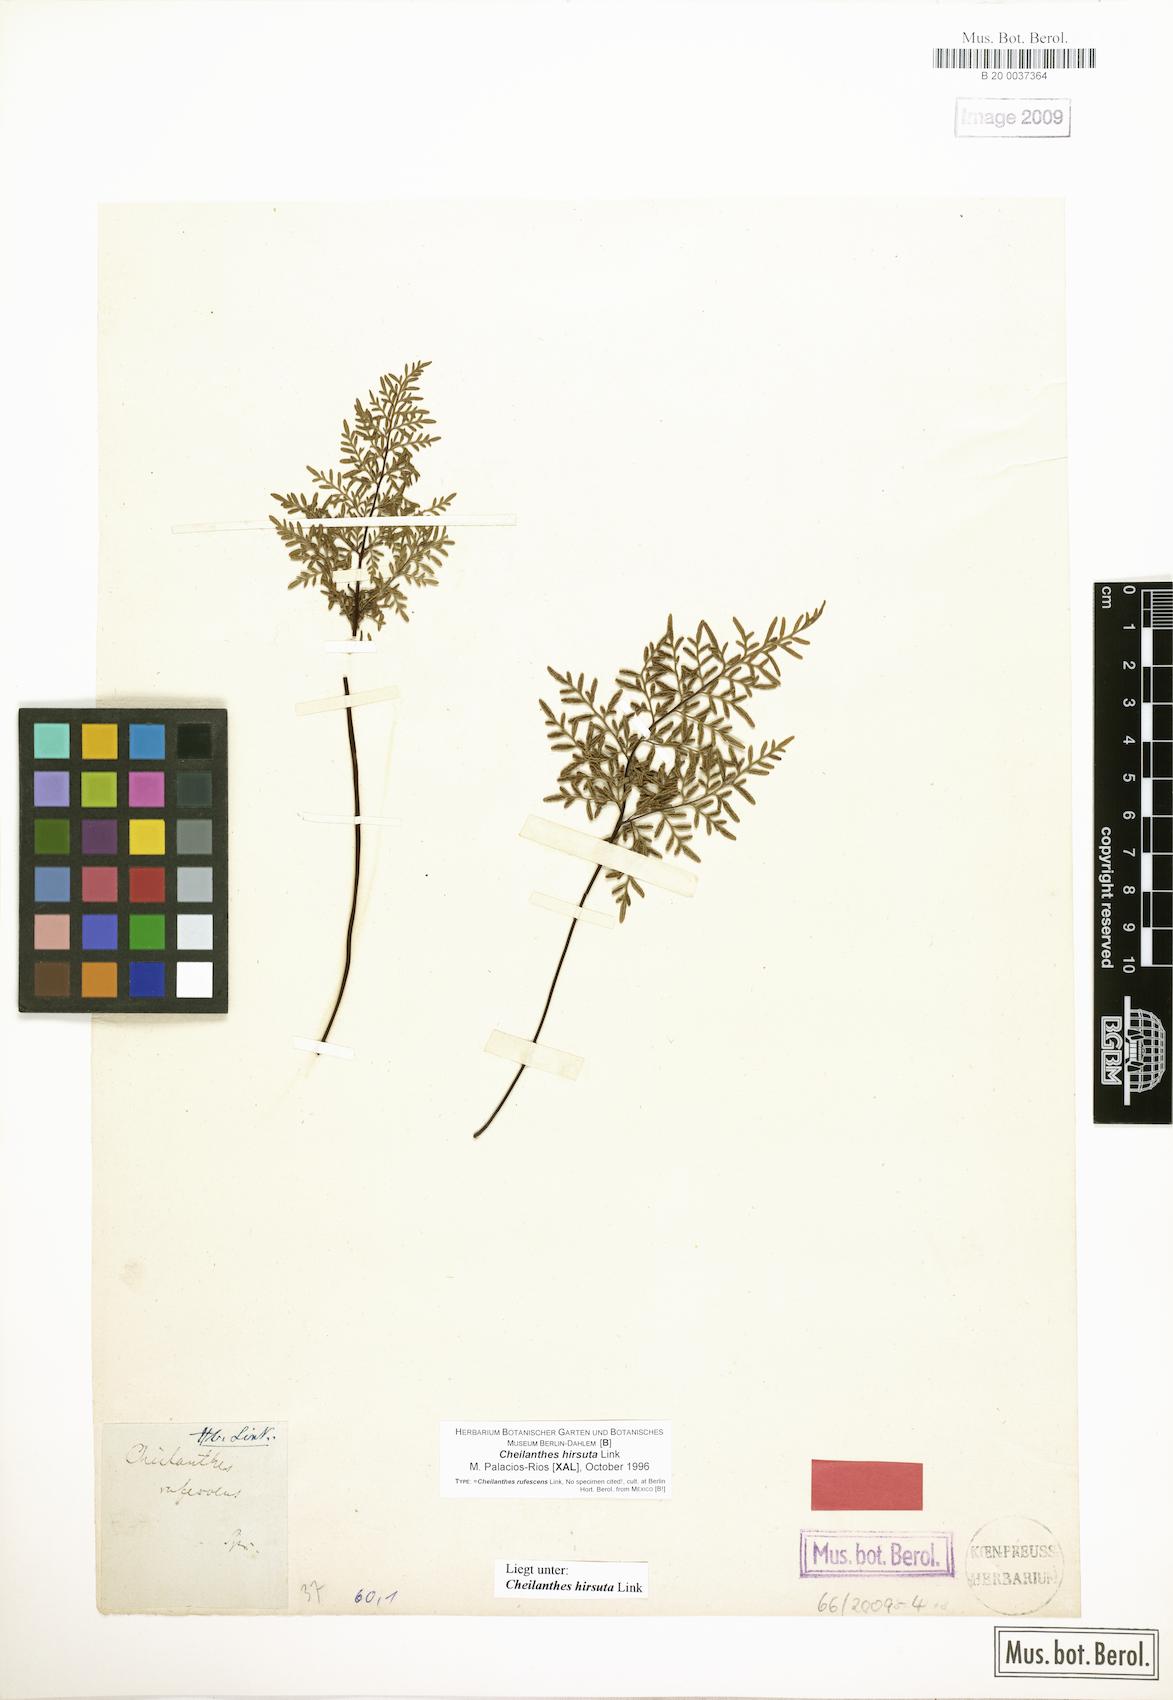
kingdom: Plantae
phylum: Tracheophyta
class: Polypodiopsida
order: Polypodiales
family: Pteridaceae
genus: Gaga
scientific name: Gaga hirsuta
